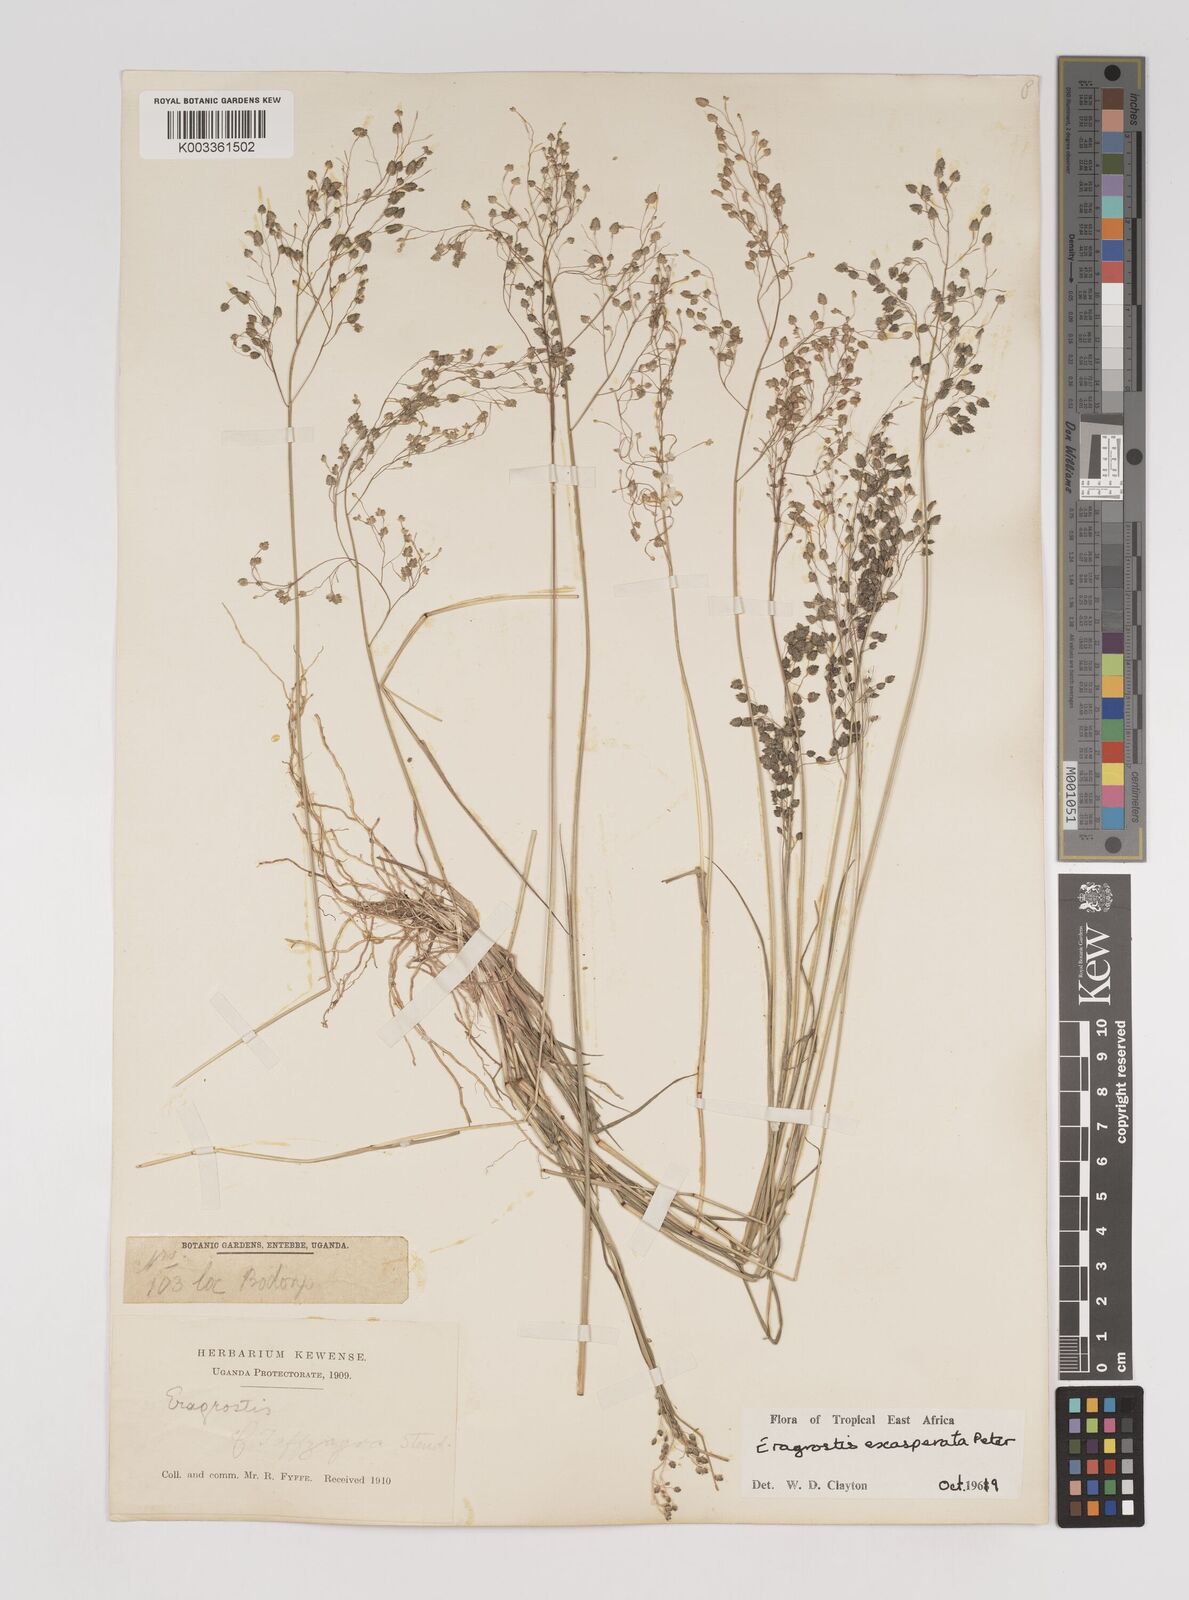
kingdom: Plantae
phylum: Tracheophyta
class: Liliopsida
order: Poales
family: Poaceae
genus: Eragrostis
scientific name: Eragrostis exasperata
